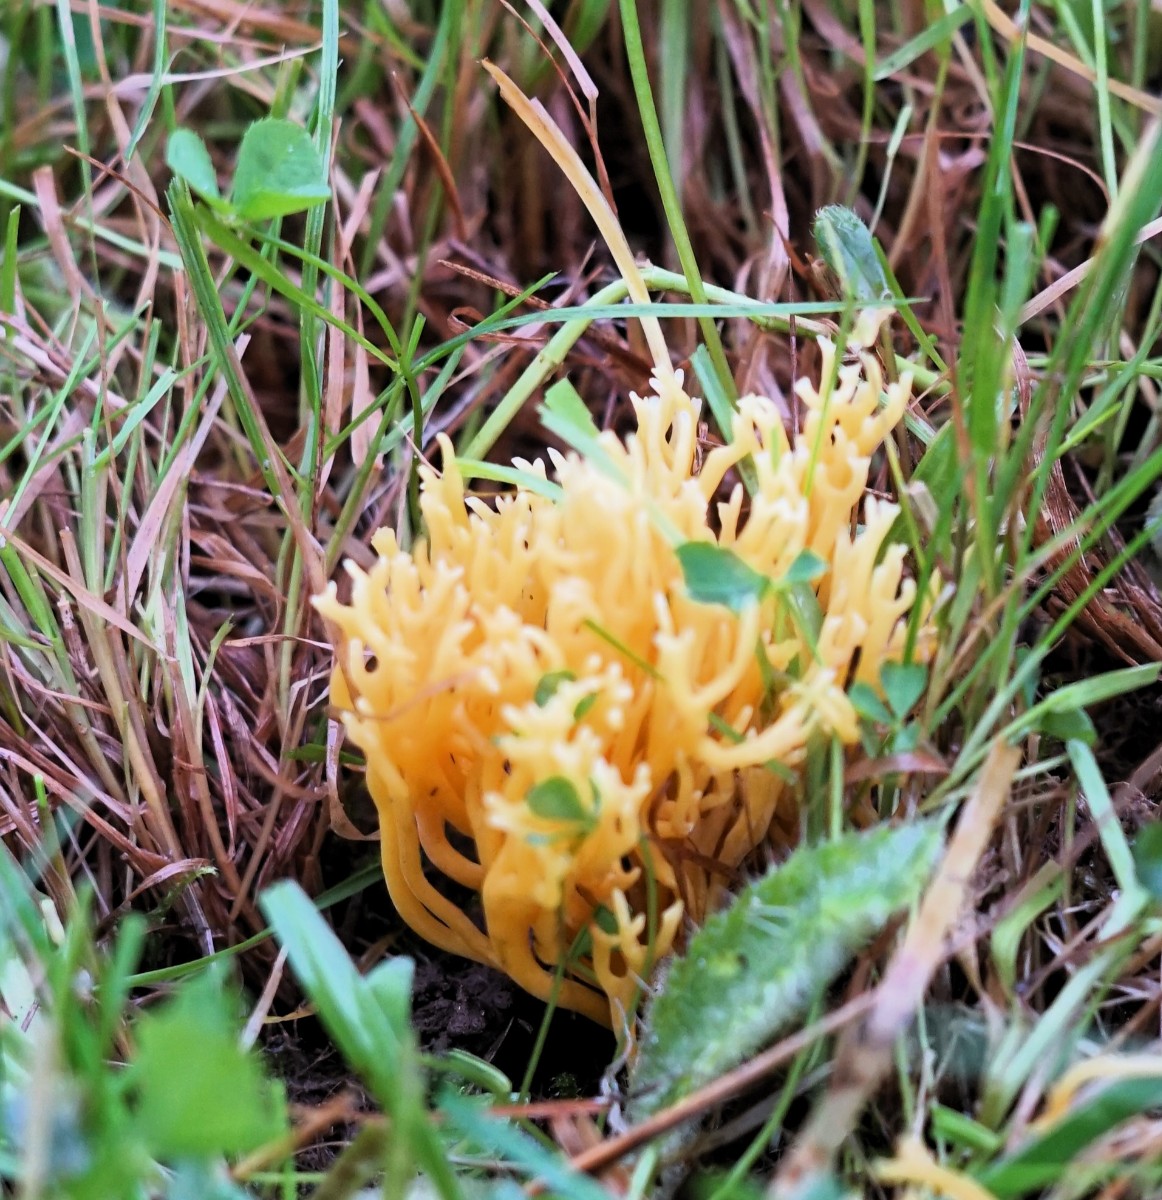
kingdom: Fungi
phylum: Basidiomycota
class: Agaricomycetes
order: Agaricales
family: Clavariaceae
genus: Clavulinopsis
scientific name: Clavulinopsis corniculata
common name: eng-køllesvamp
